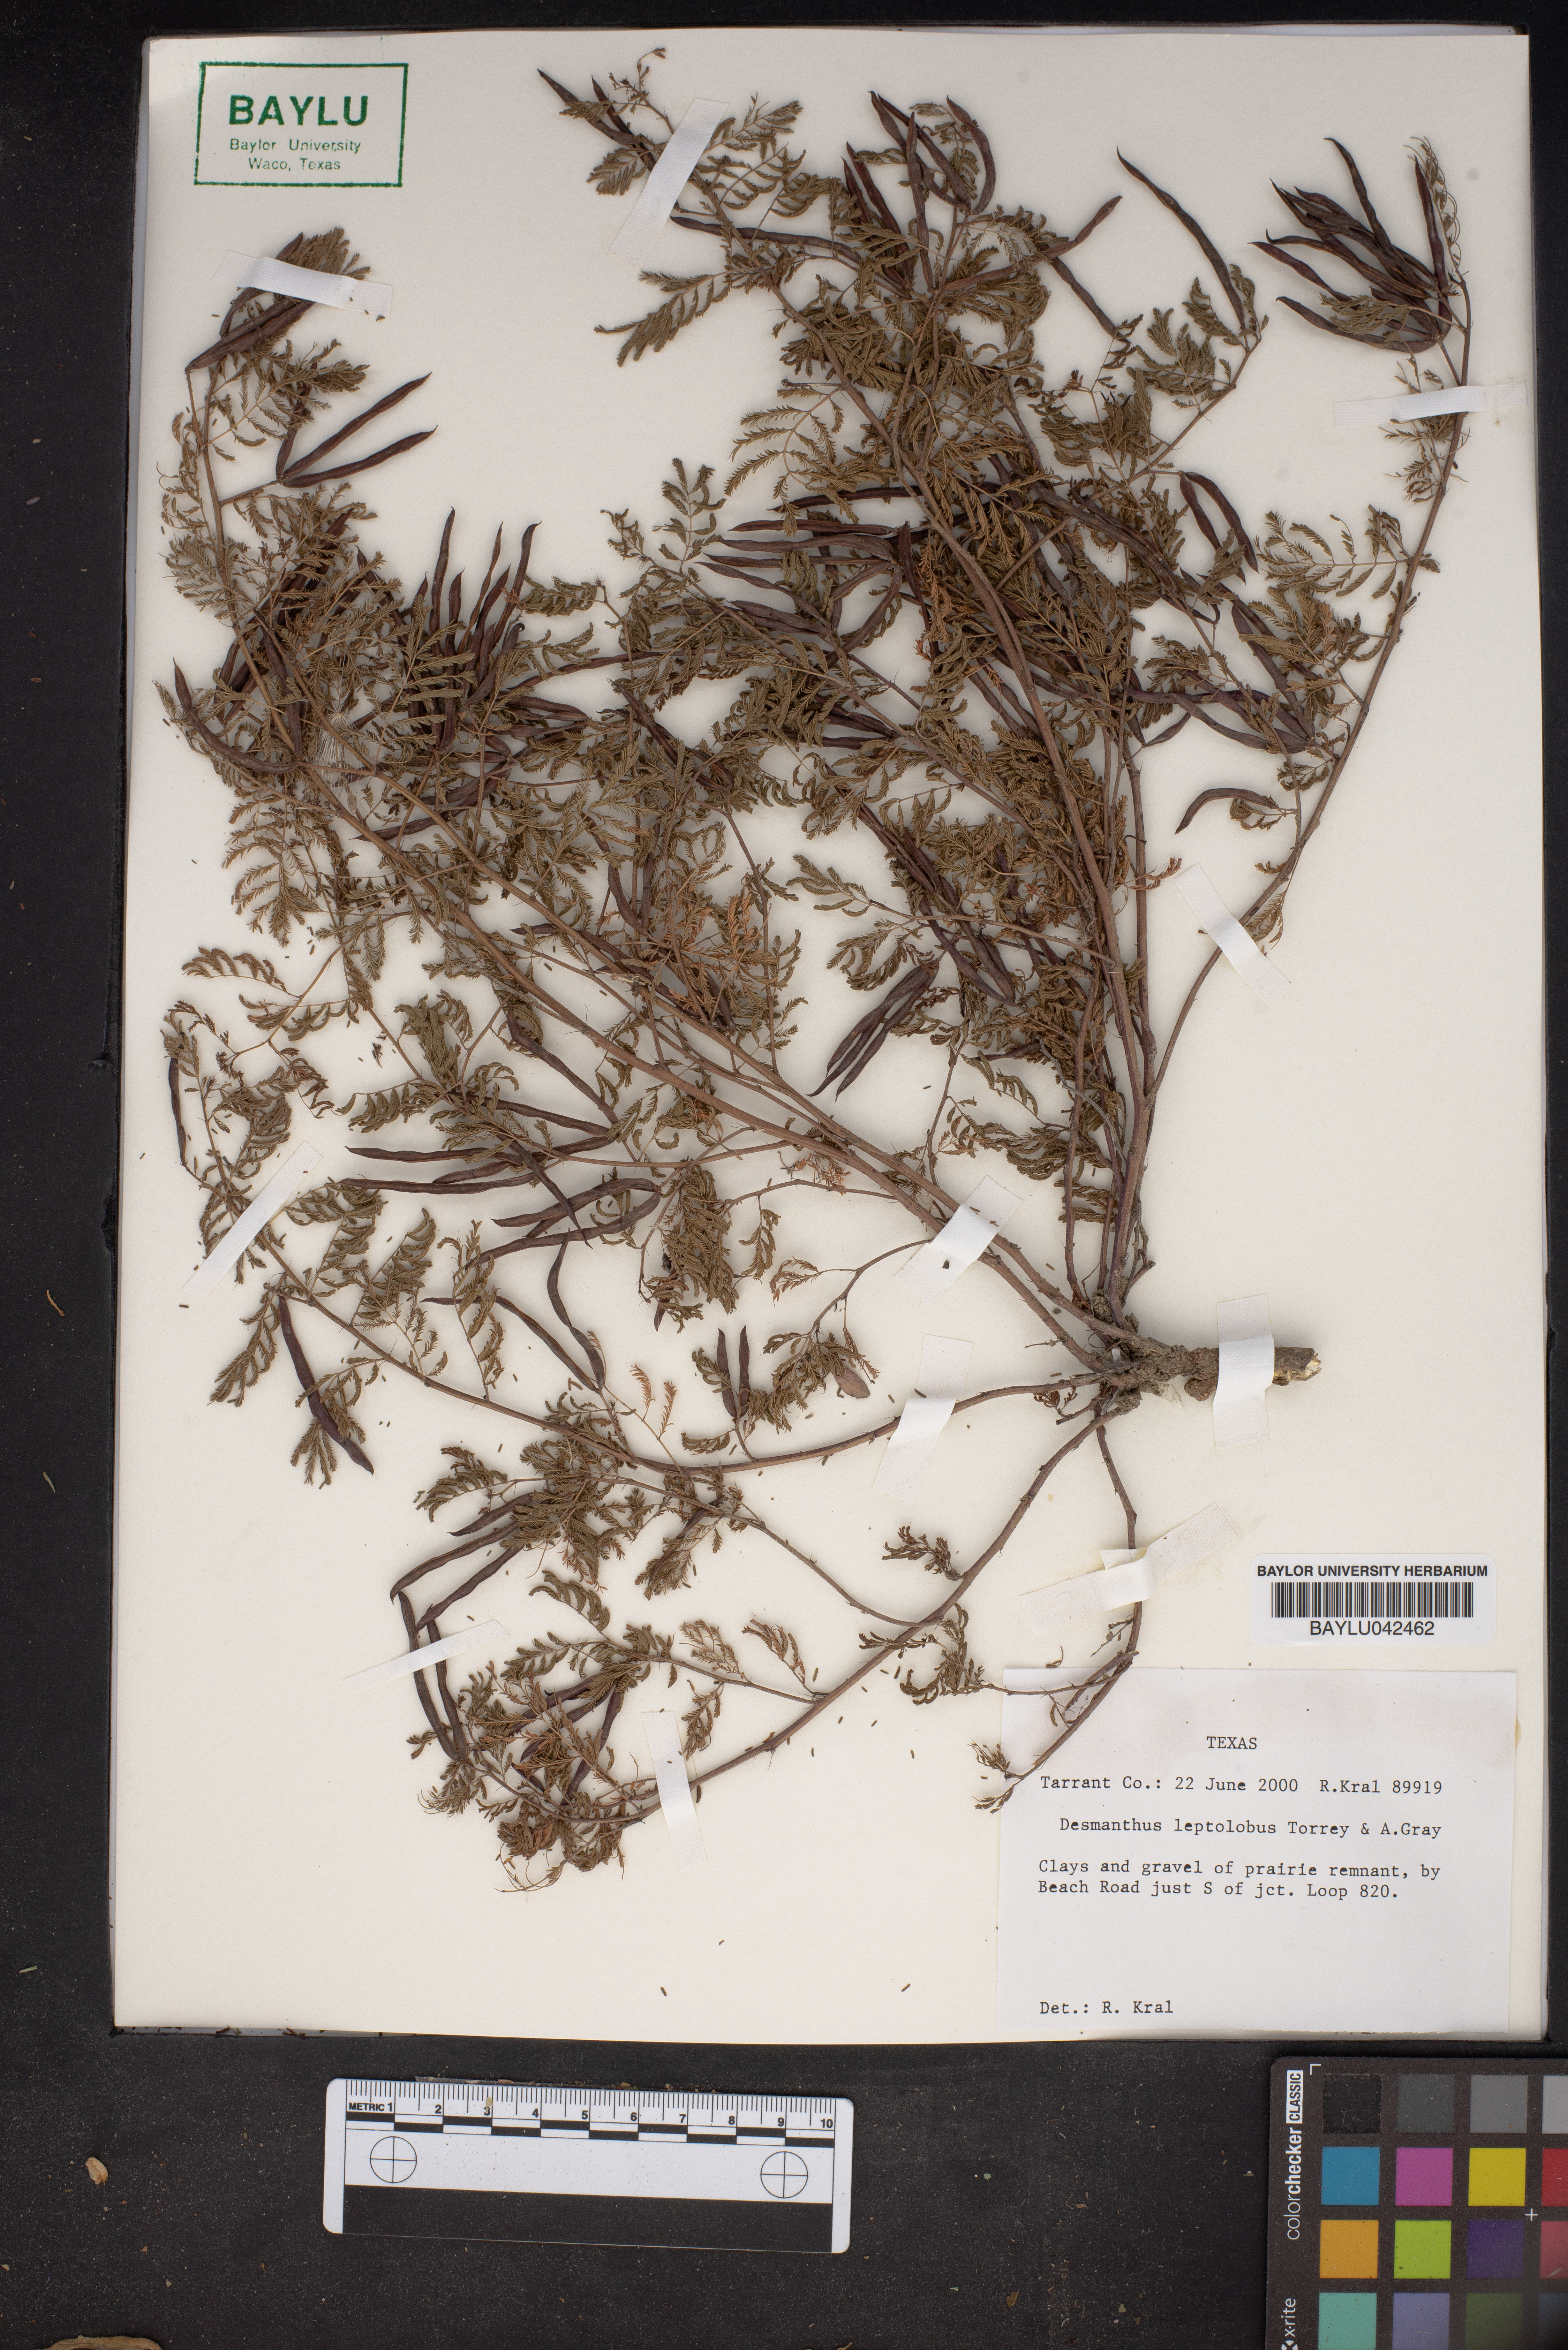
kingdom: Plantae
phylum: Tracheophyta
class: Magnoliopsida
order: Fabales
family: Fabaceae
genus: Desmanthus
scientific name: Desmanthus leptolobus
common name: Prairie-mimosa
